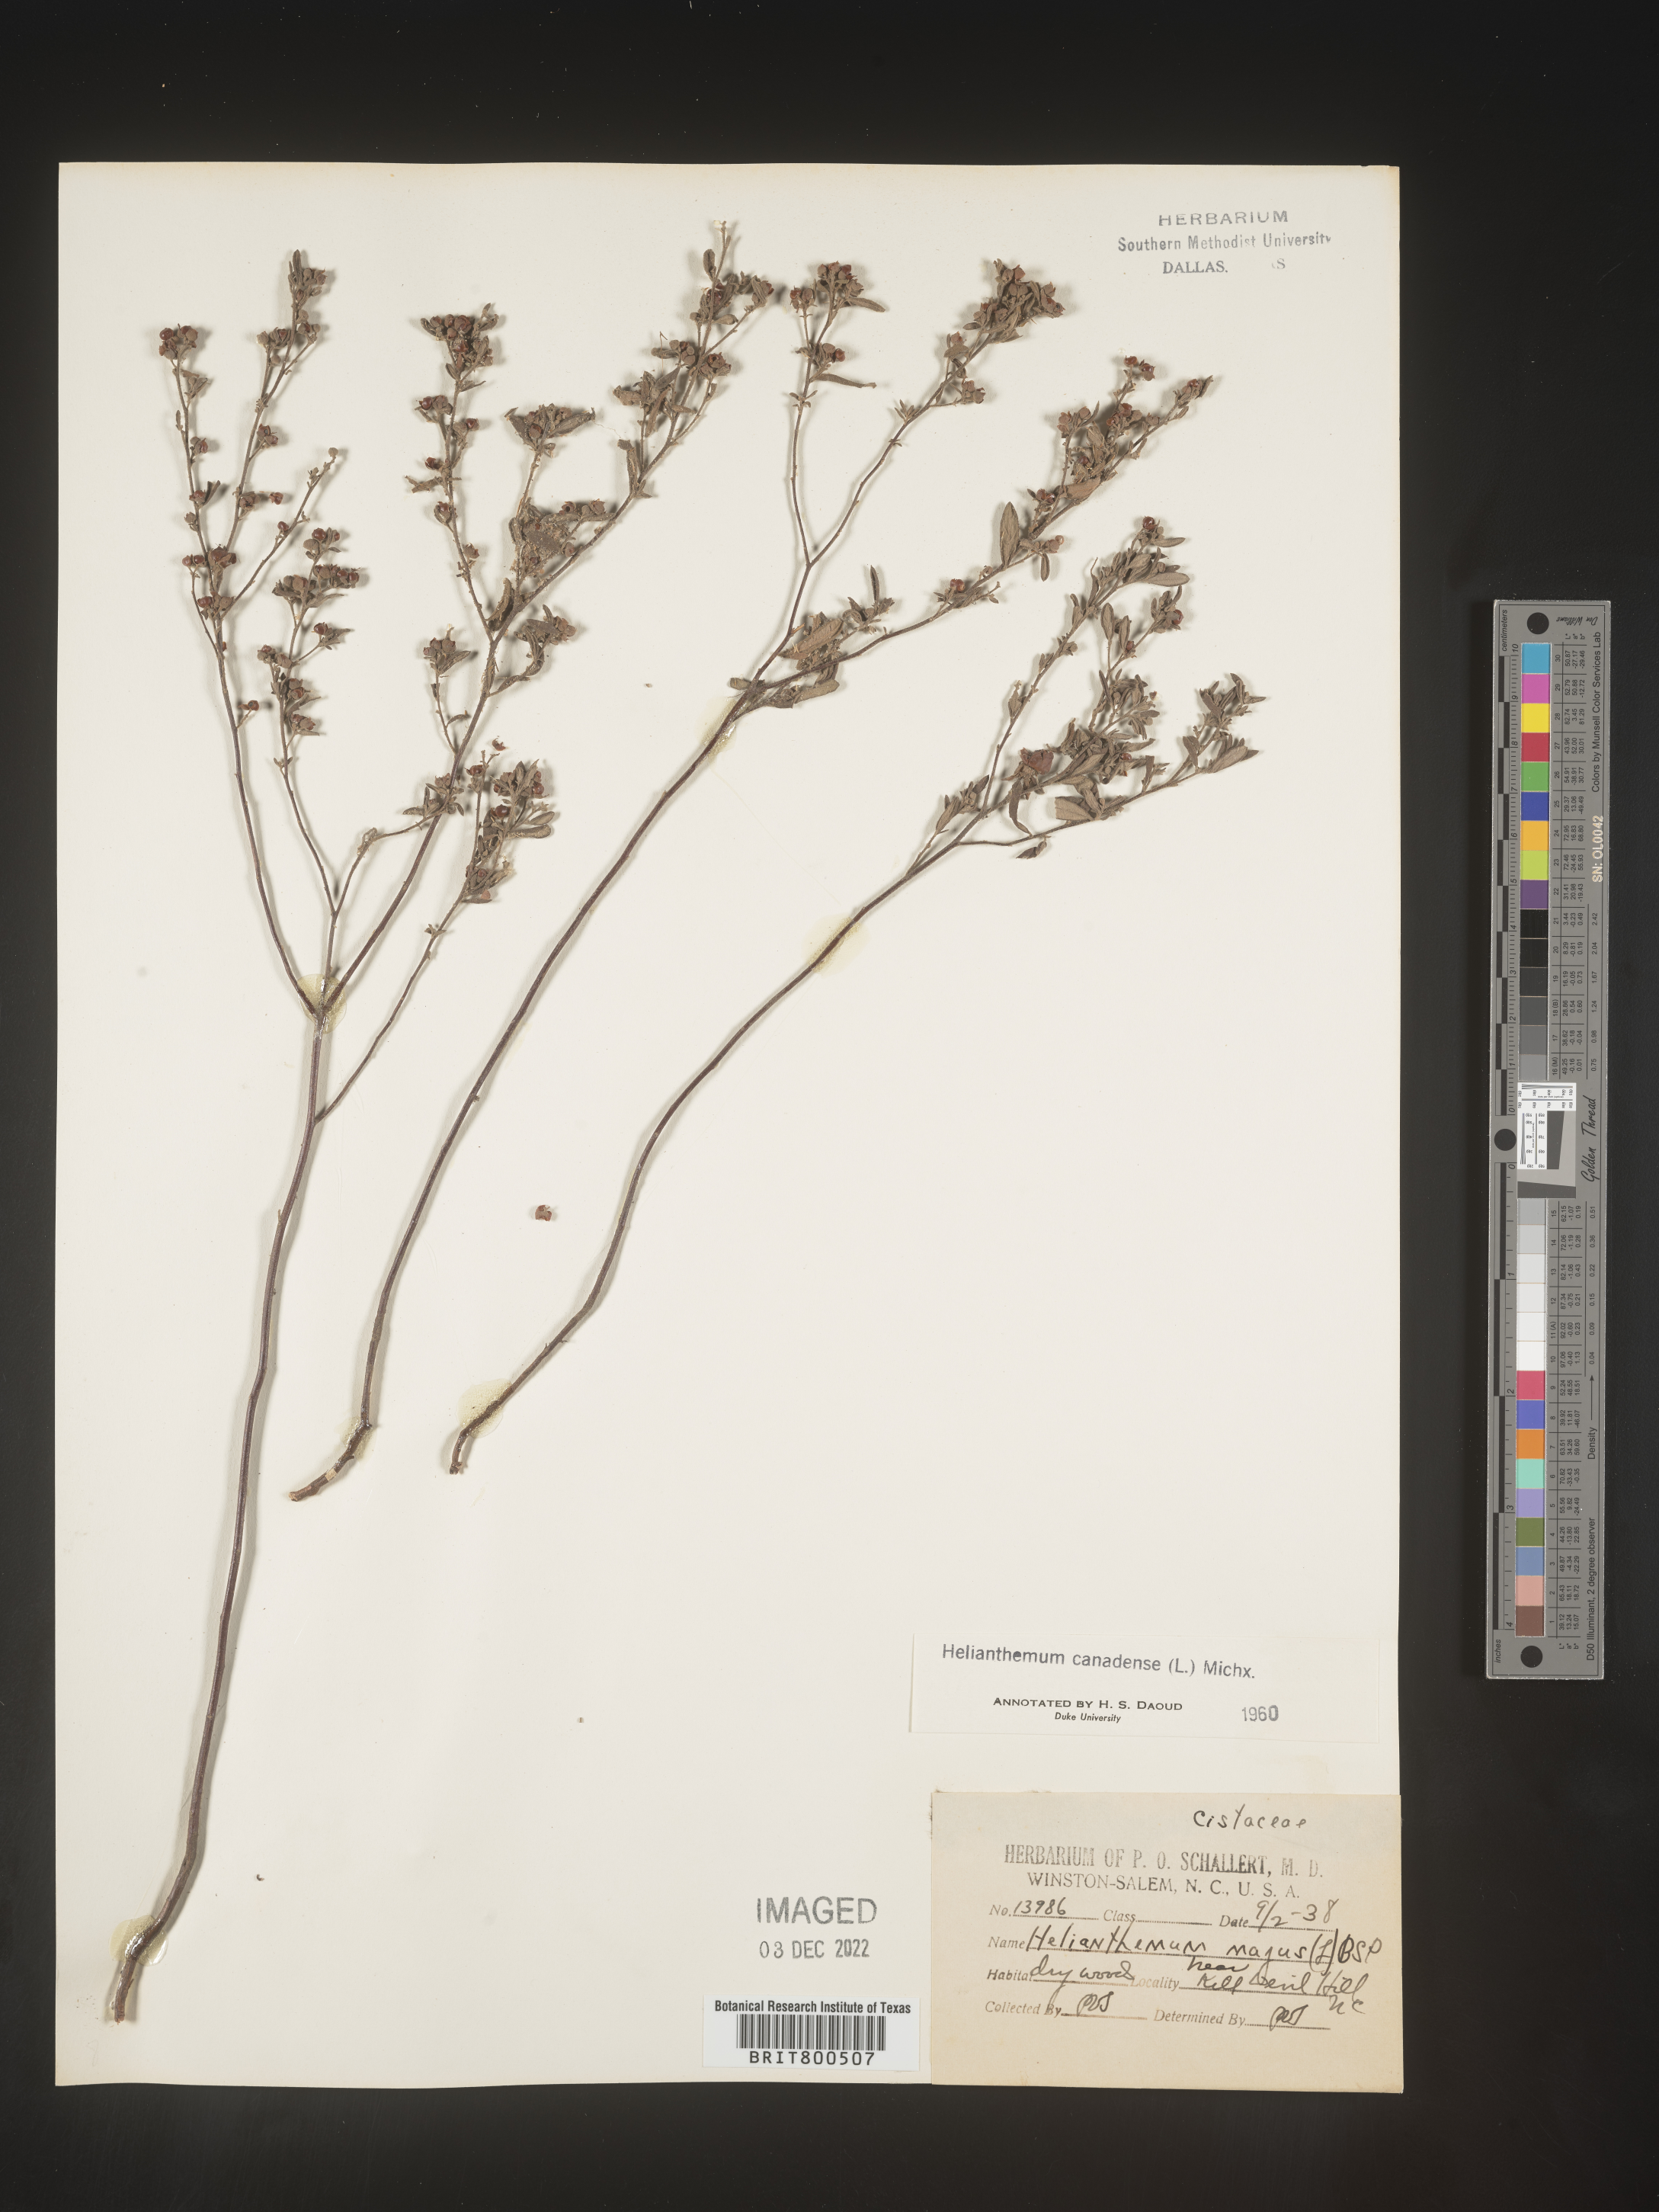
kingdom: Plantae
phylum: Tracheophyta
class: Magnoliopsida
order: Malvales
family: Cistaceae
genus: Crocanthemum
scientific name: Crocanthemum canadense
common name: Canada frostweed
